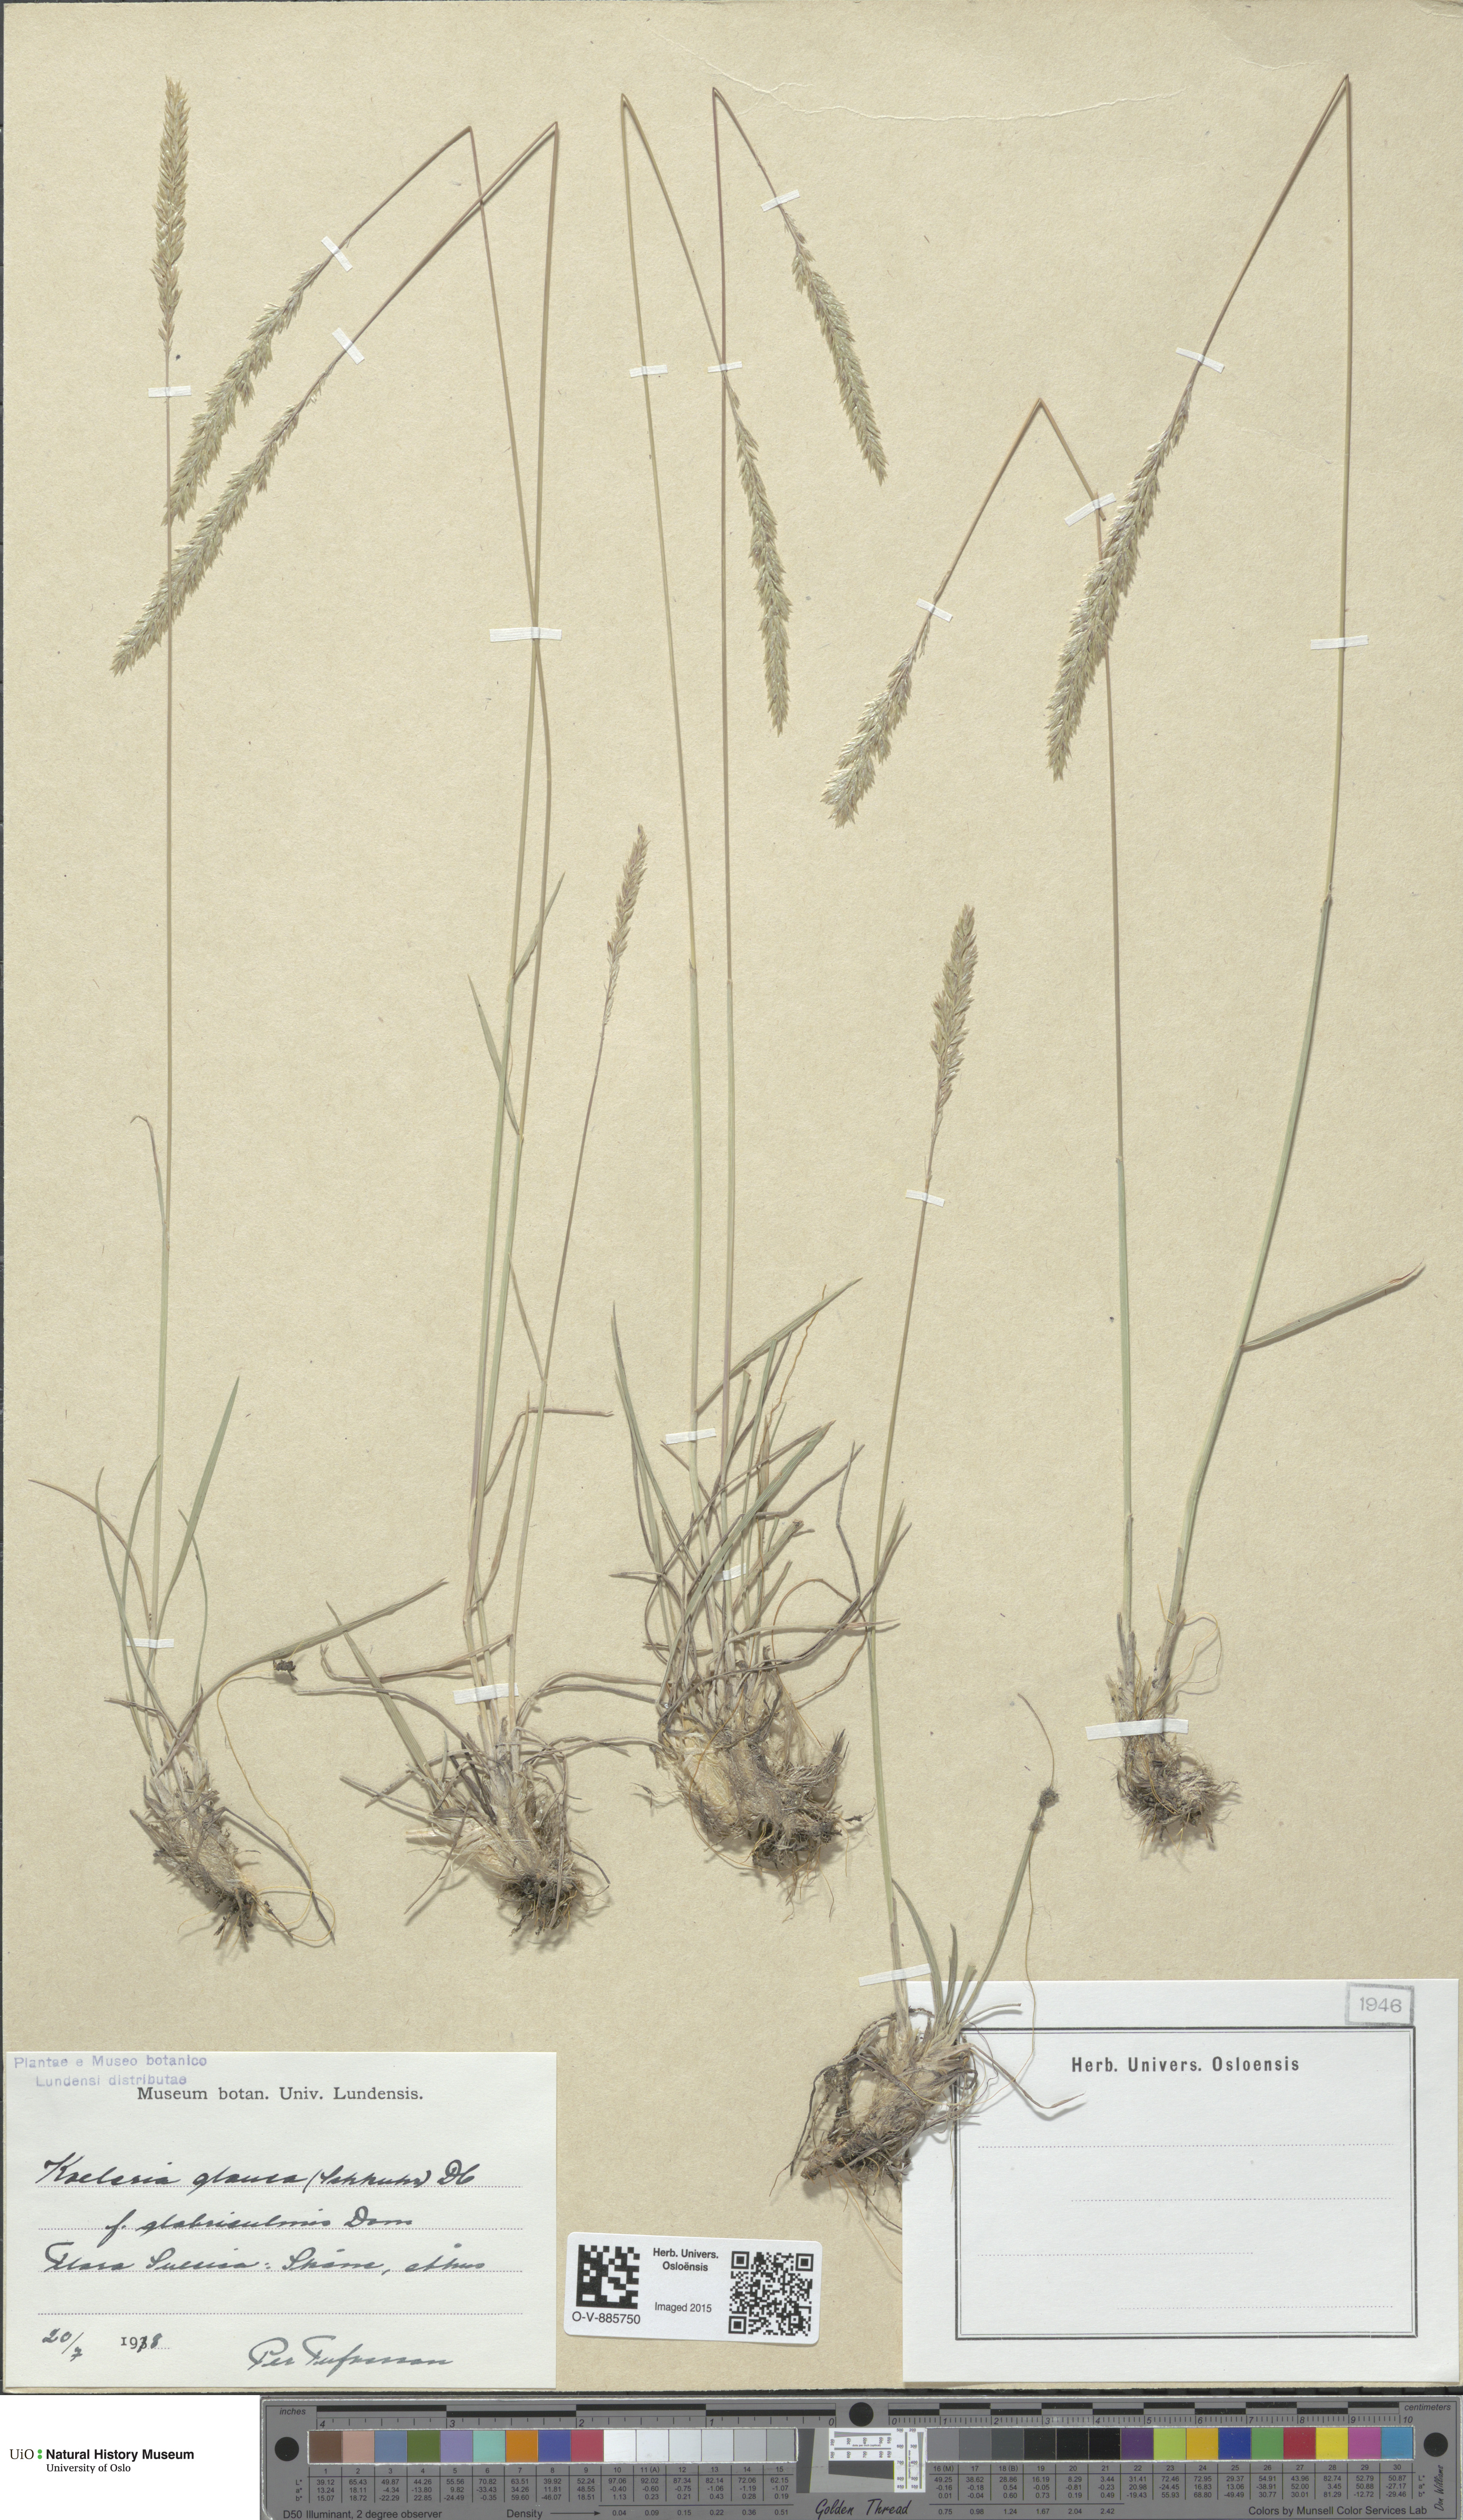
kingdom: Plantae
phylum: Tracheophyta
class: Liliopsida
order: Poales
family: Poaceae
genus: Poa
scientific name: Poa glauca
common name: Glaucous bluegrass
